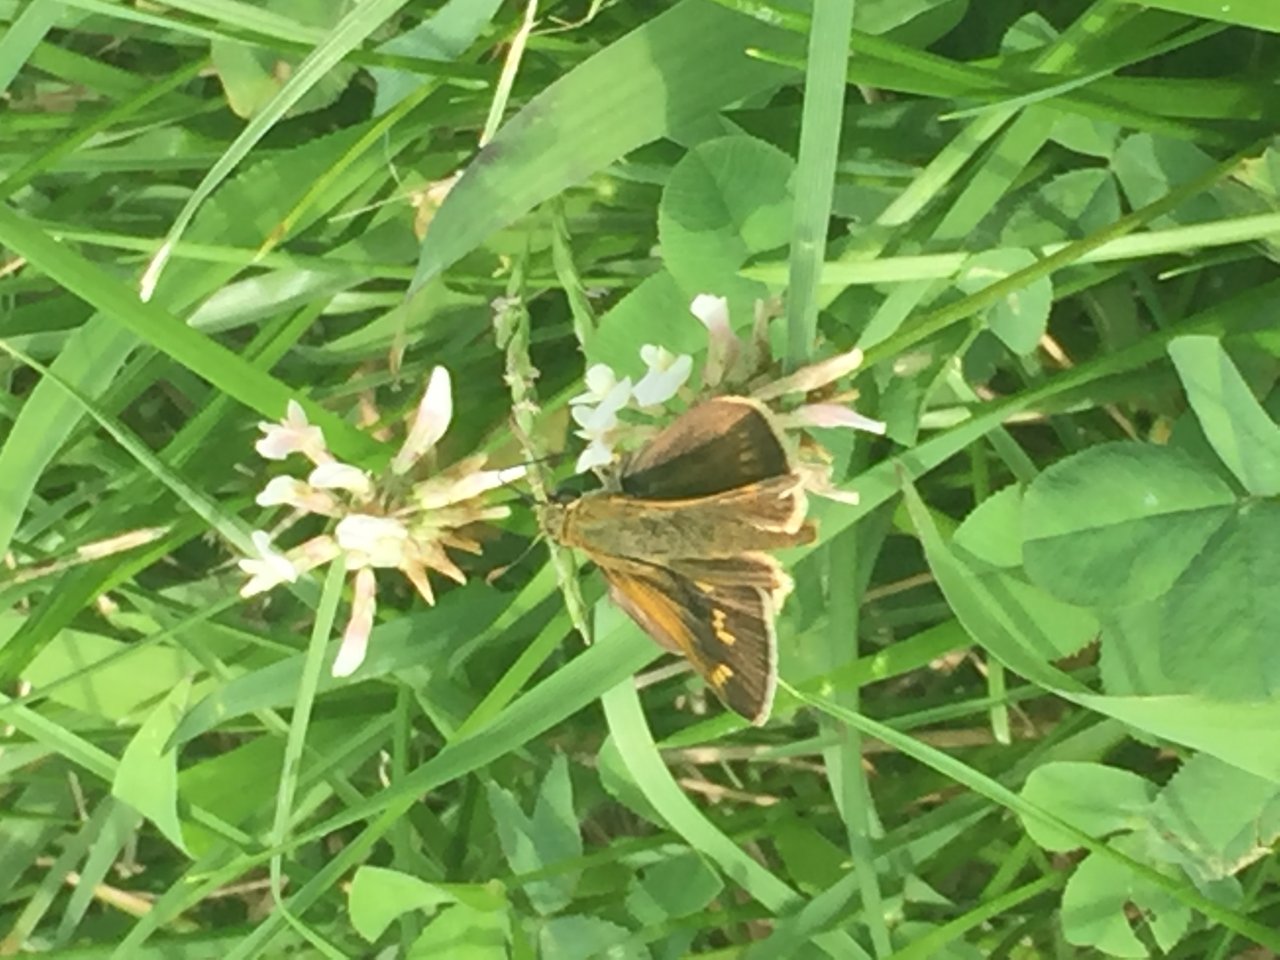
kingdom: Animalia
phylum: Arthropoda
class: Insecta
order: Lepidoptera
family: Hesperiidae
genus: Polites
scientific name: Polites
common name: Crossline Skipper
